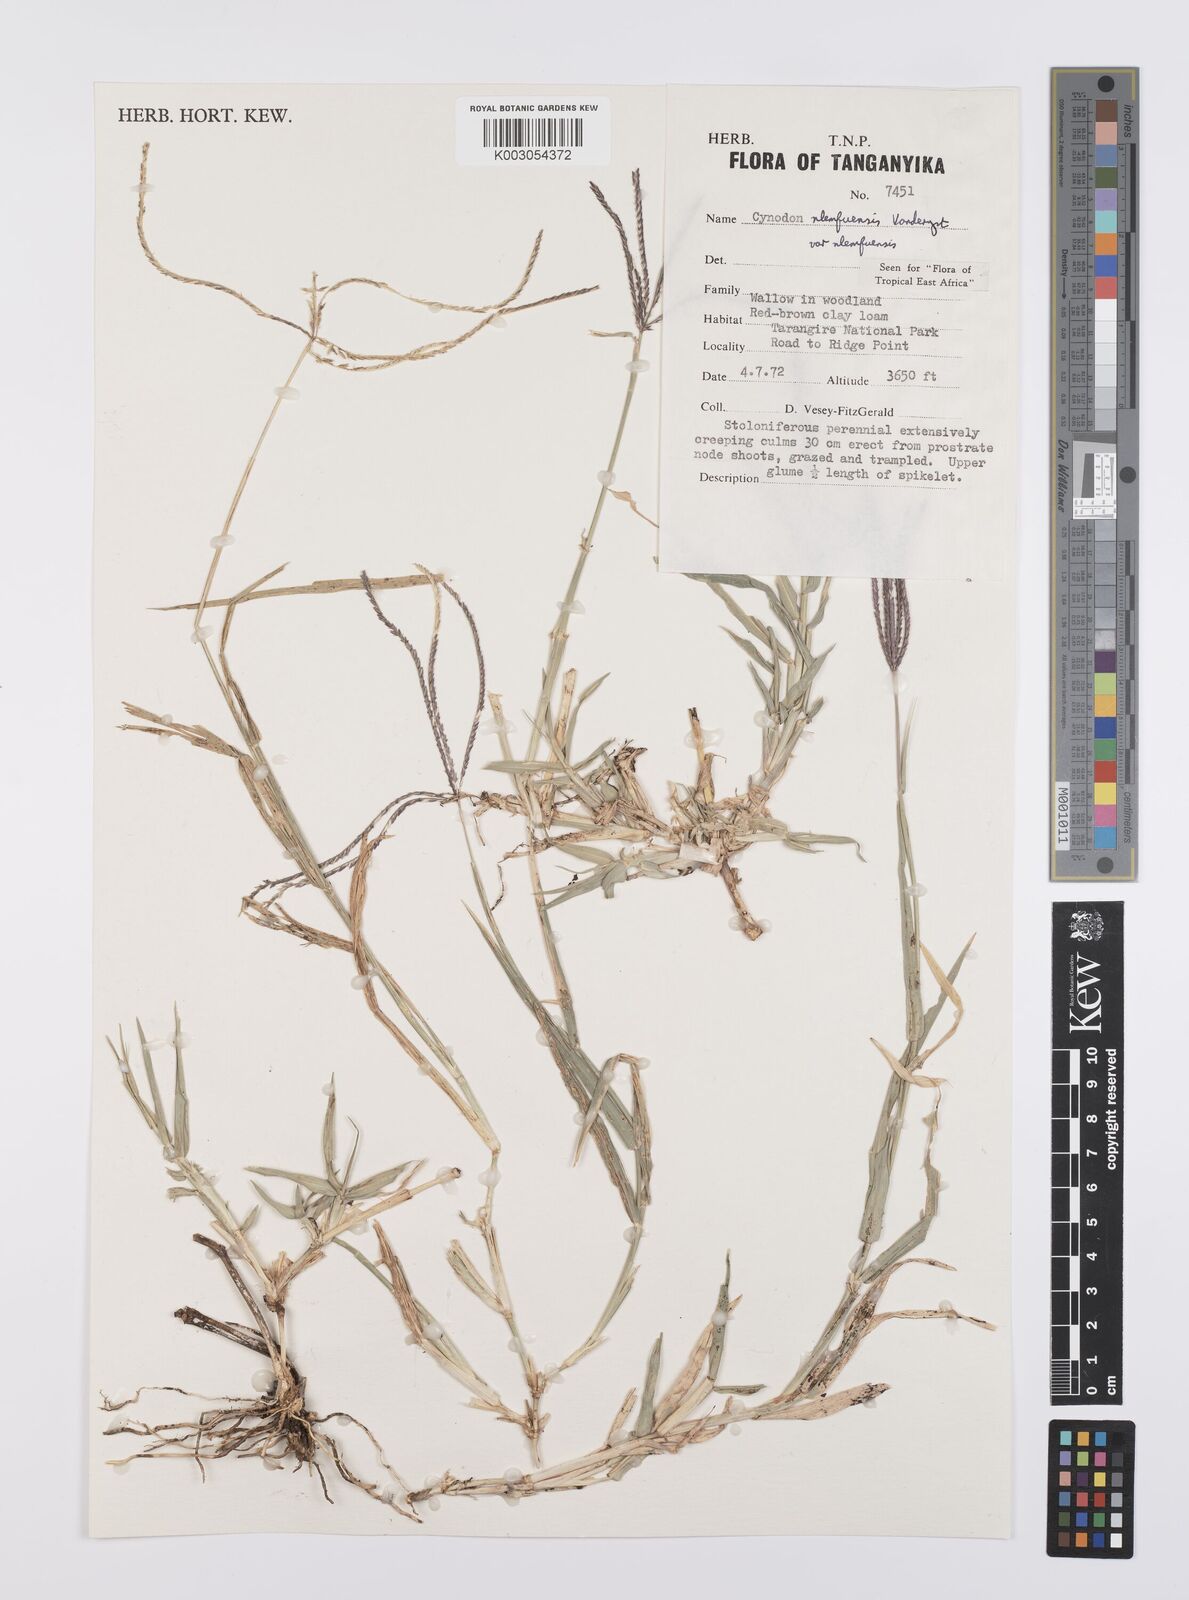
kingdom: Plantae
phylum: Tracheophyta
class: Liliopsida
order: Poales
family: Poaceae
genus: Cynodon
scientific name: Cynodon nlemfuensis
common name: African bermudagrass
